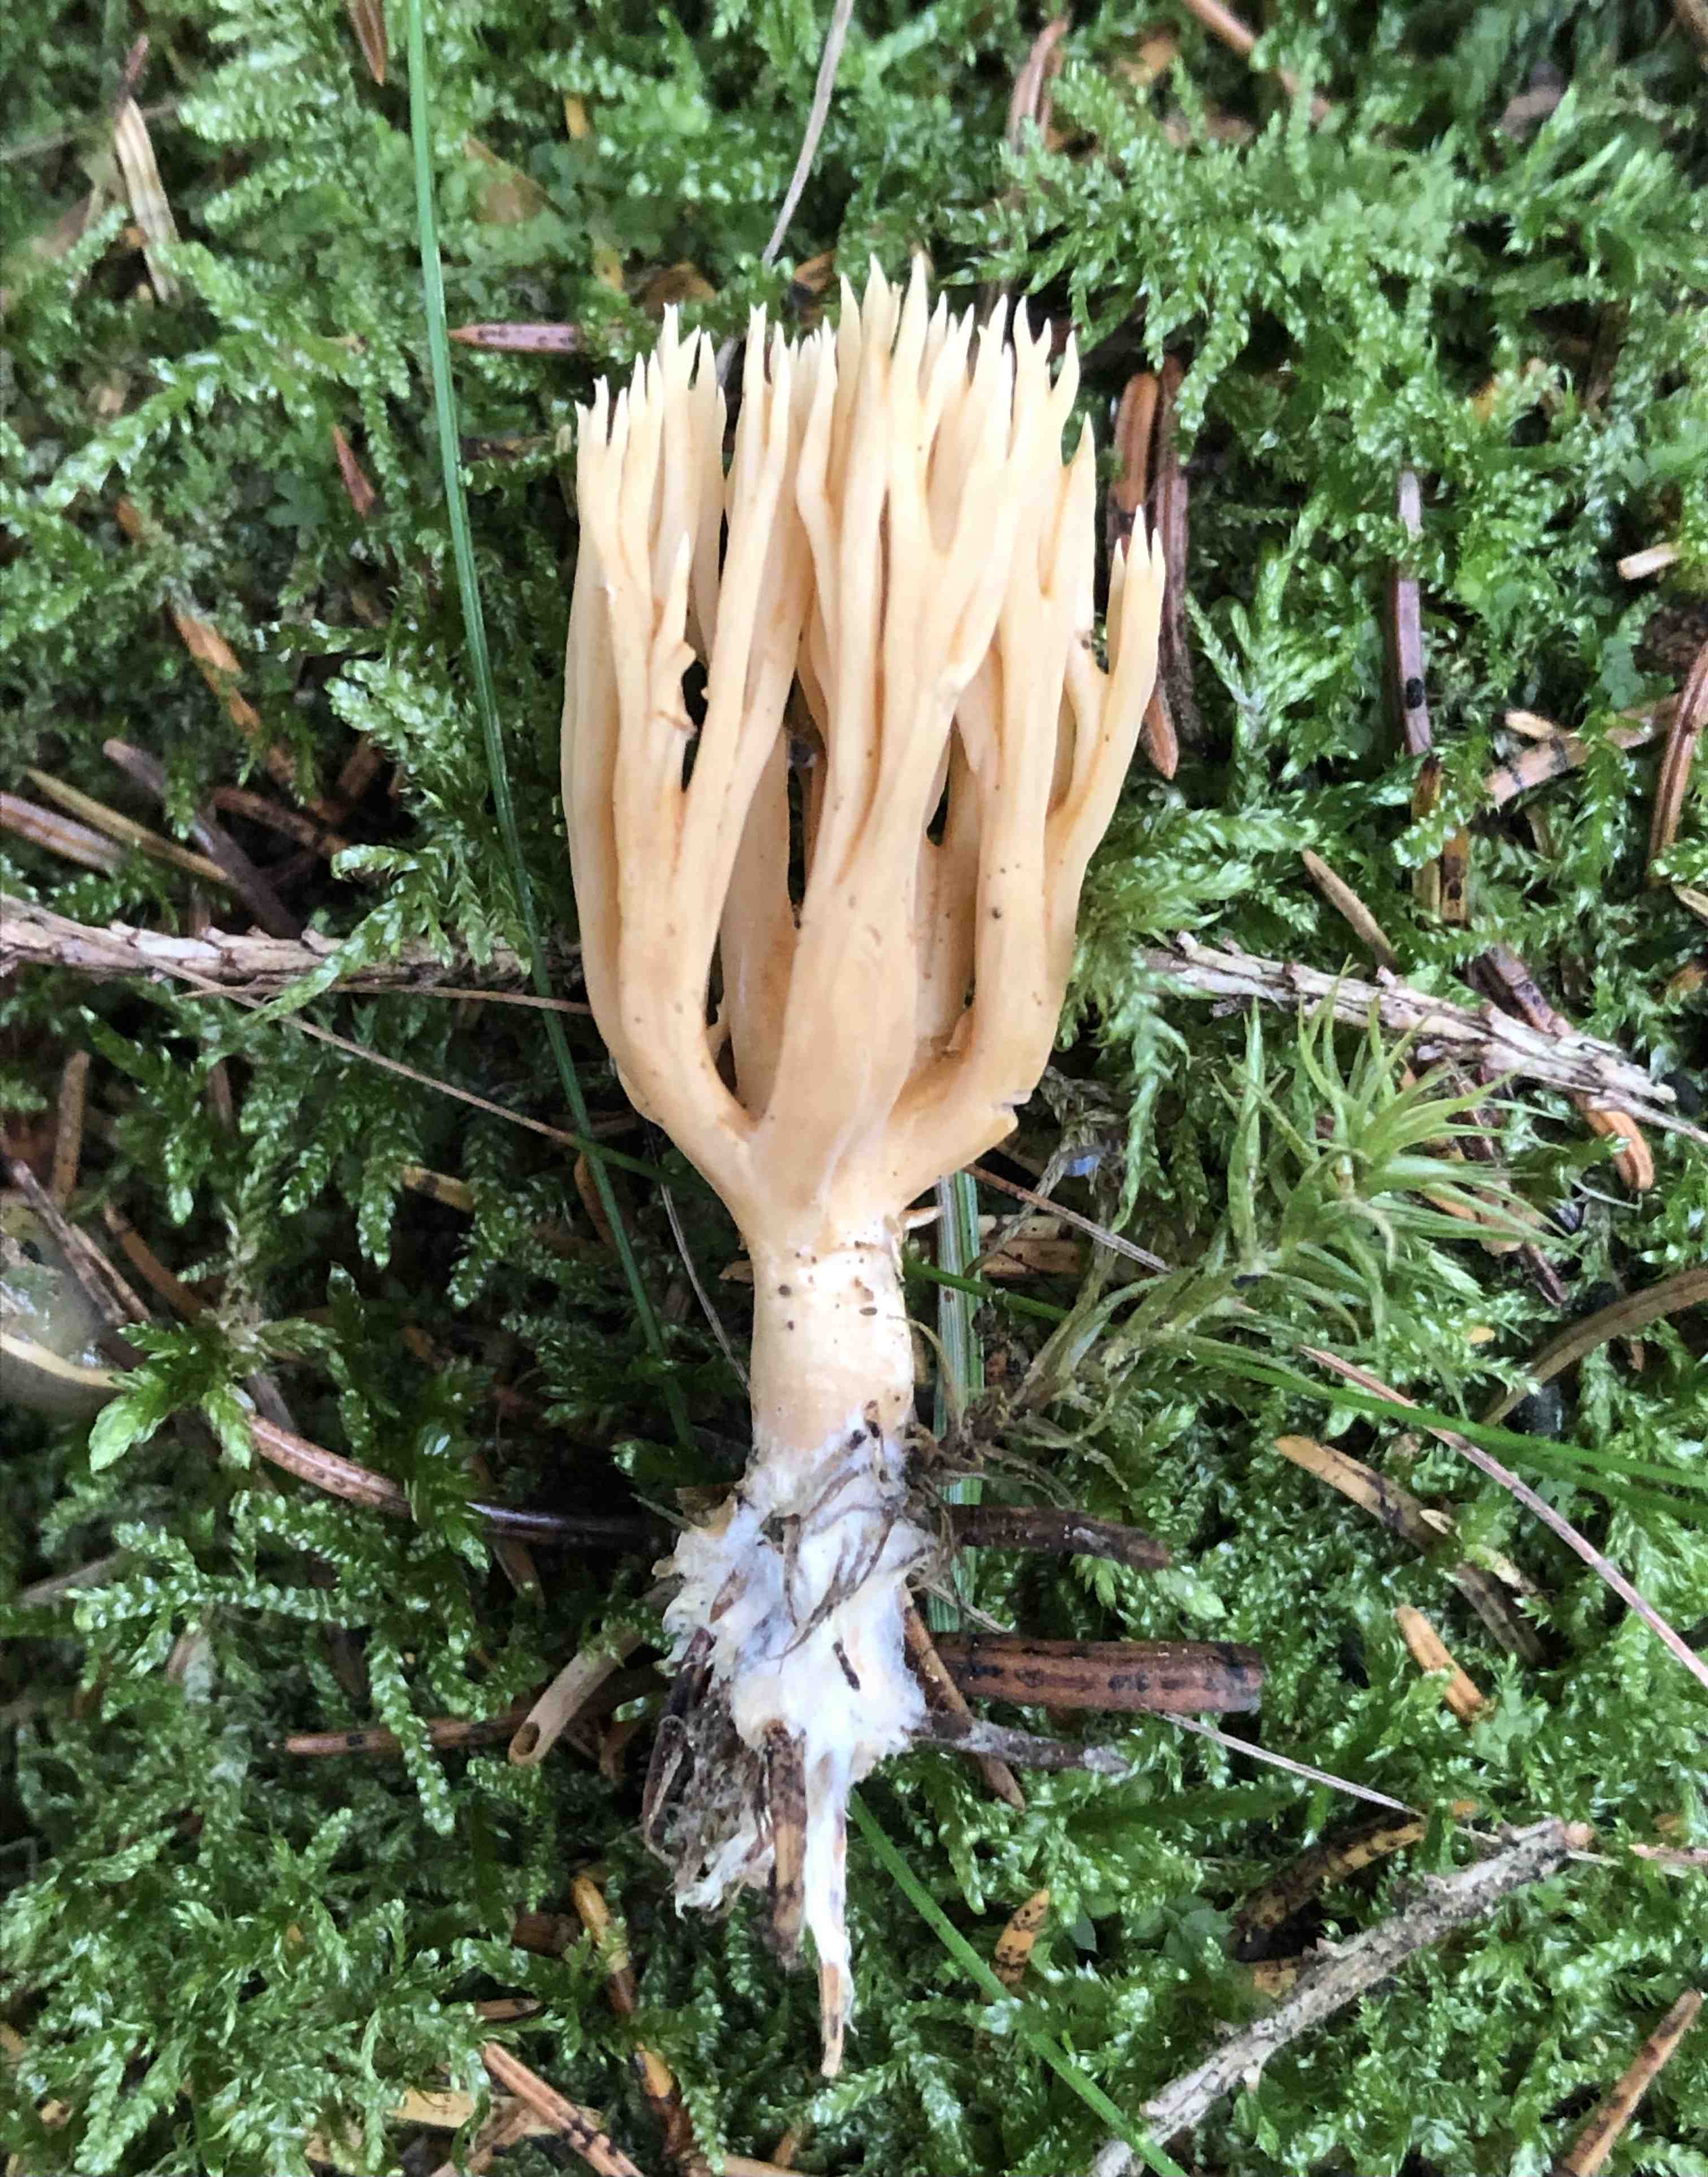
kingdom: Fungi
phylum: Basidiomycota
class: Agaricomycetes
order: Gomphales
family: Gomphaceae
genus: Phaeoclavulina
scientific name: Phaeoclavulina eumorpha
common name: gran-koralsvamp
